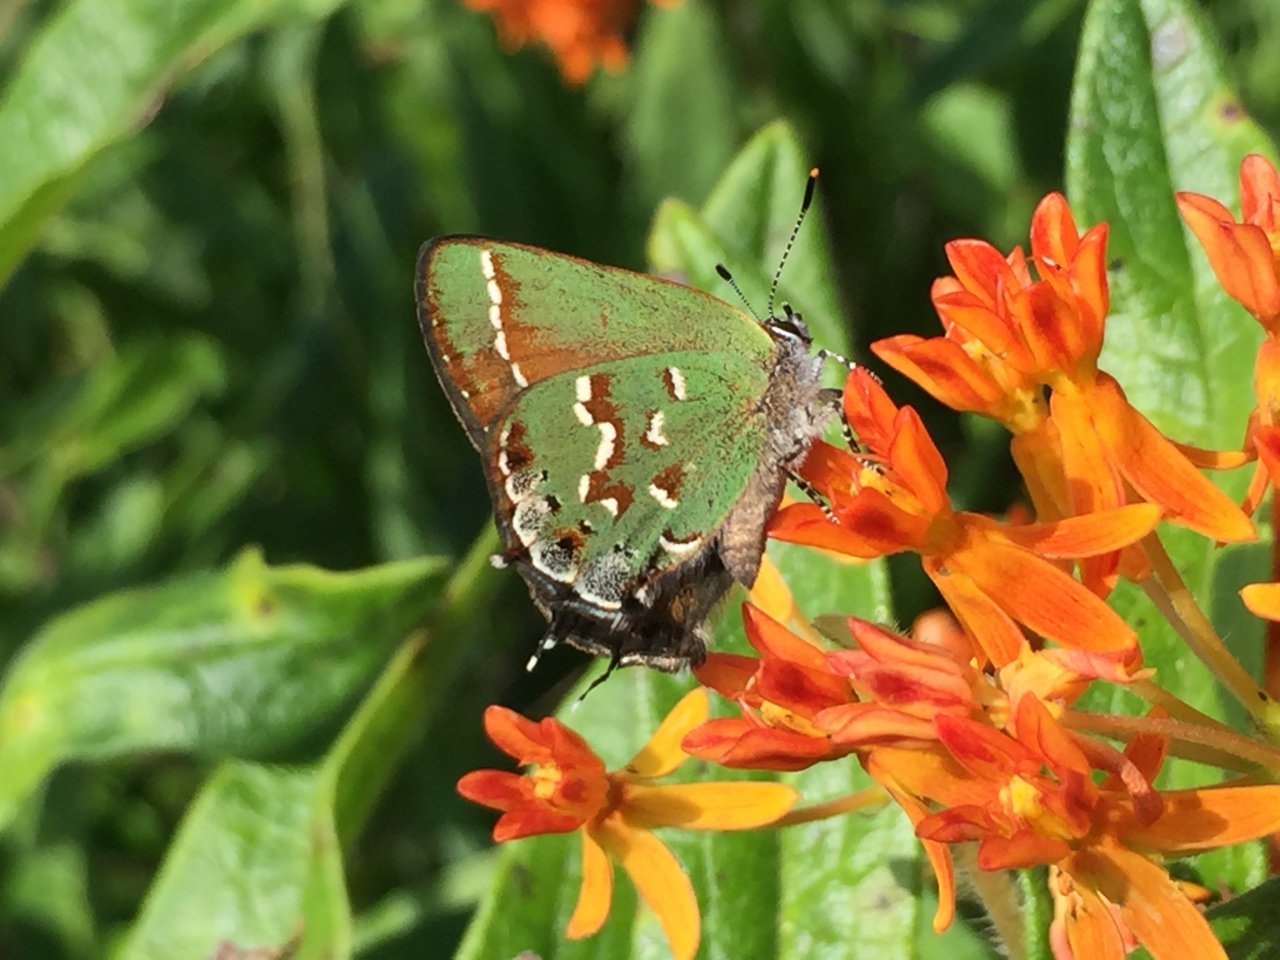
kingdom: Animalia
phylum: Arthropoda
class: Insecta
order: Lepidoptera
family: Lycaenidae
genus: Mitoura
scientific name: Mitoura gryneus
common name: Juniper Hairstreak
